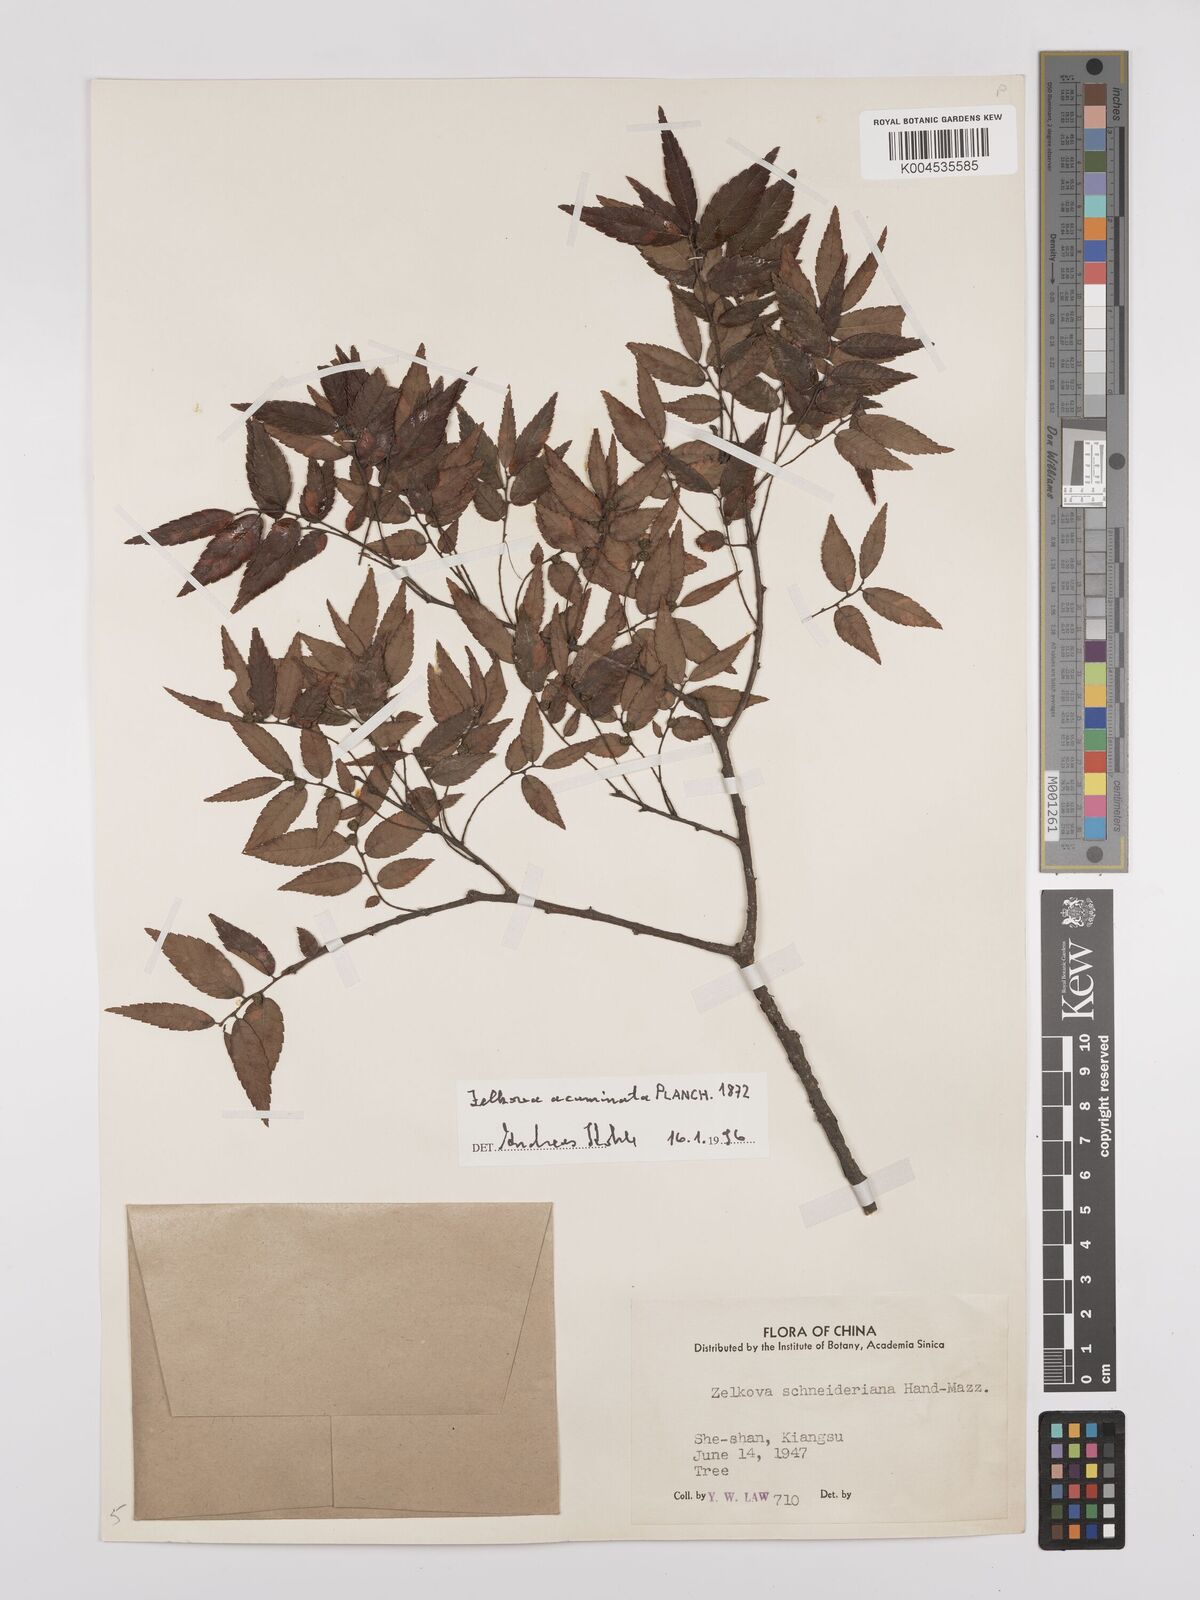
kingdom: Plantae
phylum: Tracheophyta
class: Magnoliopsida
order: Rosales
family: Ulmaceae
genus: Zelkova
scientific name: Zelkova serrata
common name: Japanese zelkova
